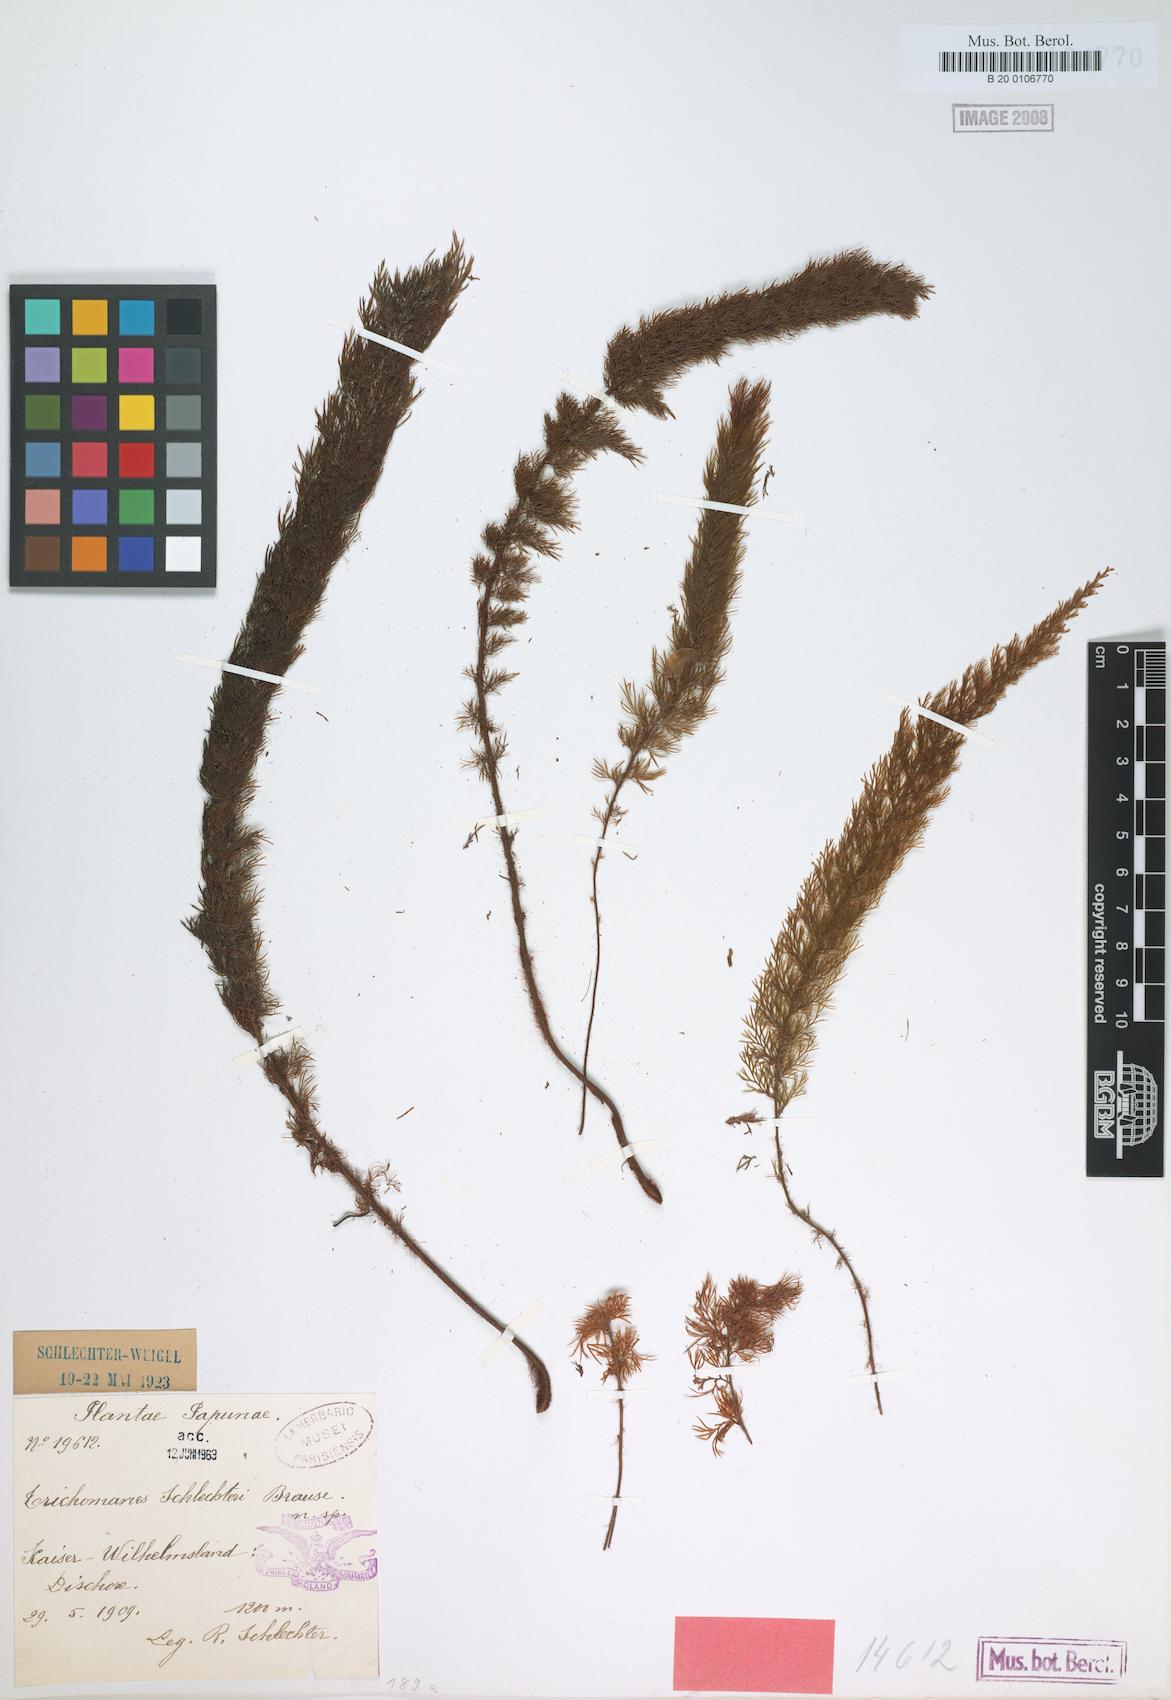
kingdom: Plantae
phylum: Tracheophyta
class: Polypodiopsida
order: Hymenophyllales
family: Hymenophyllaceae
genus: Abrodictyum
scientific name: Abrodictyum schlechteri
